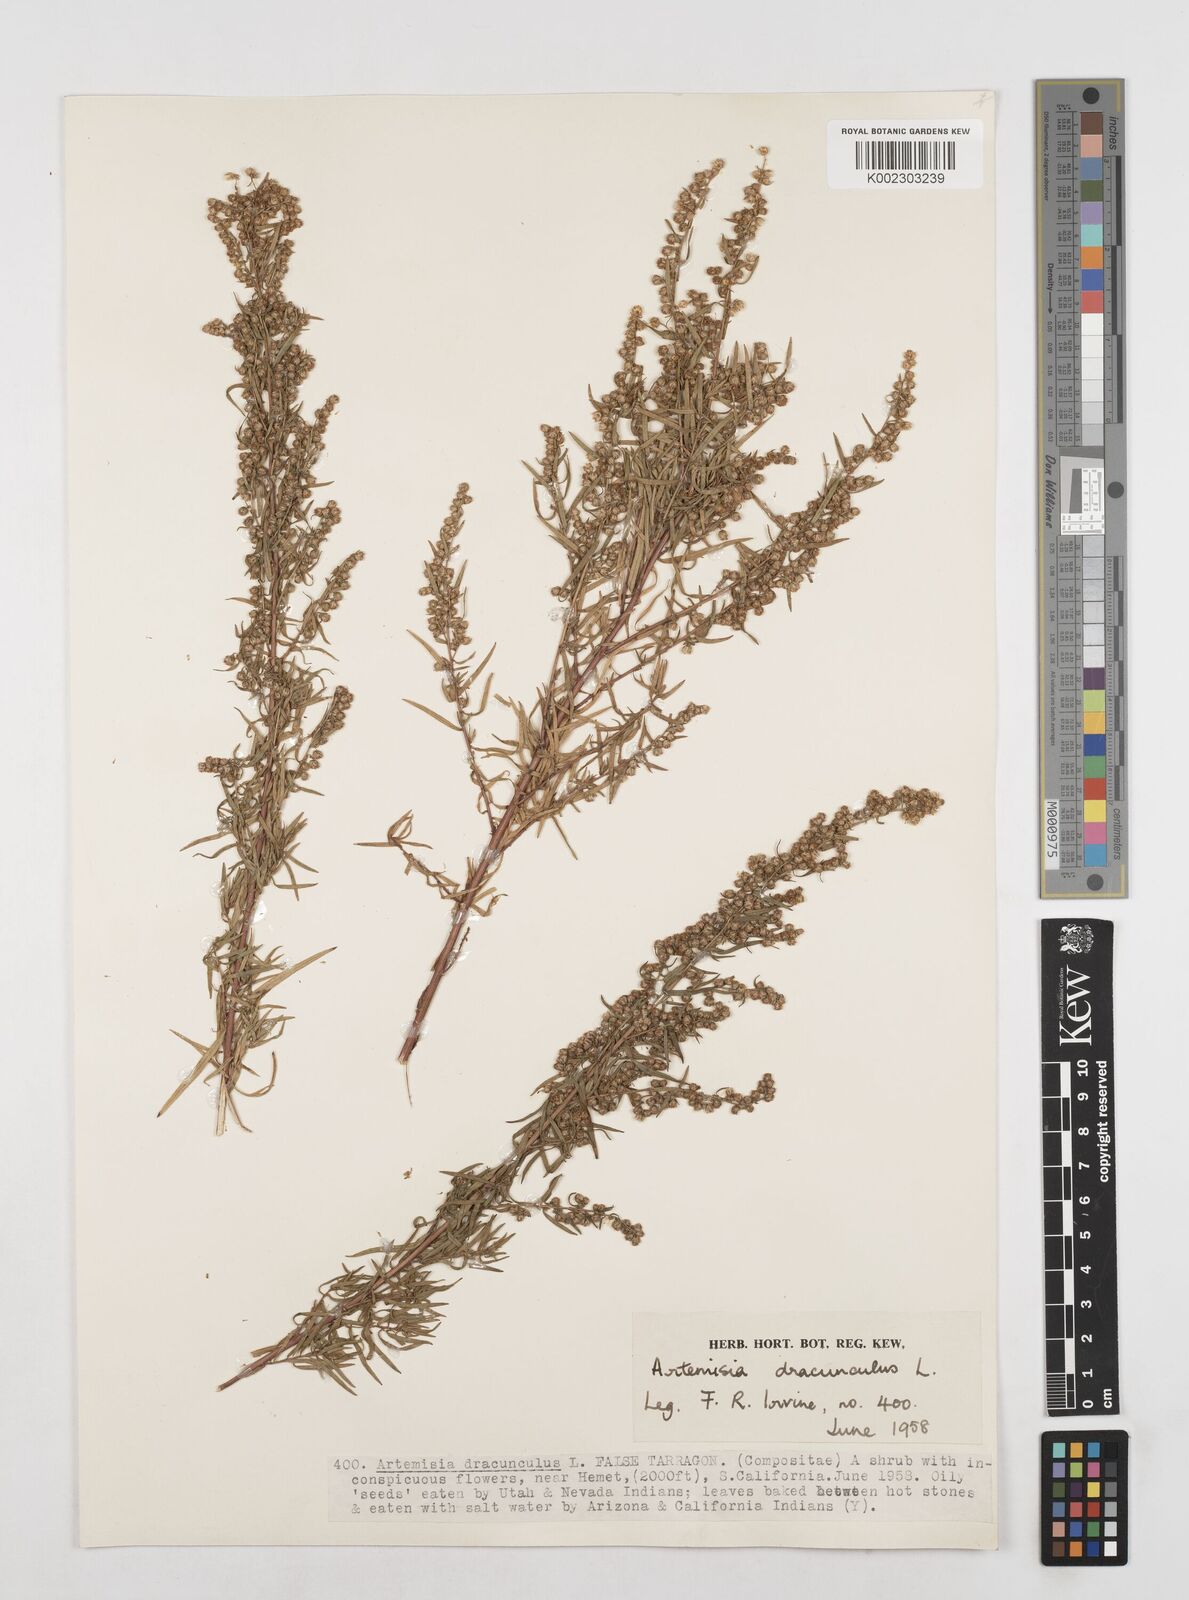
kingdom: Plantae
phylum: Tracheophyta
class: Magnoliopsida
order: Asterales
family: Asteraceae
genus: Artemisia
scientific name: Artemisia dracunculus
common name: Tarragon
